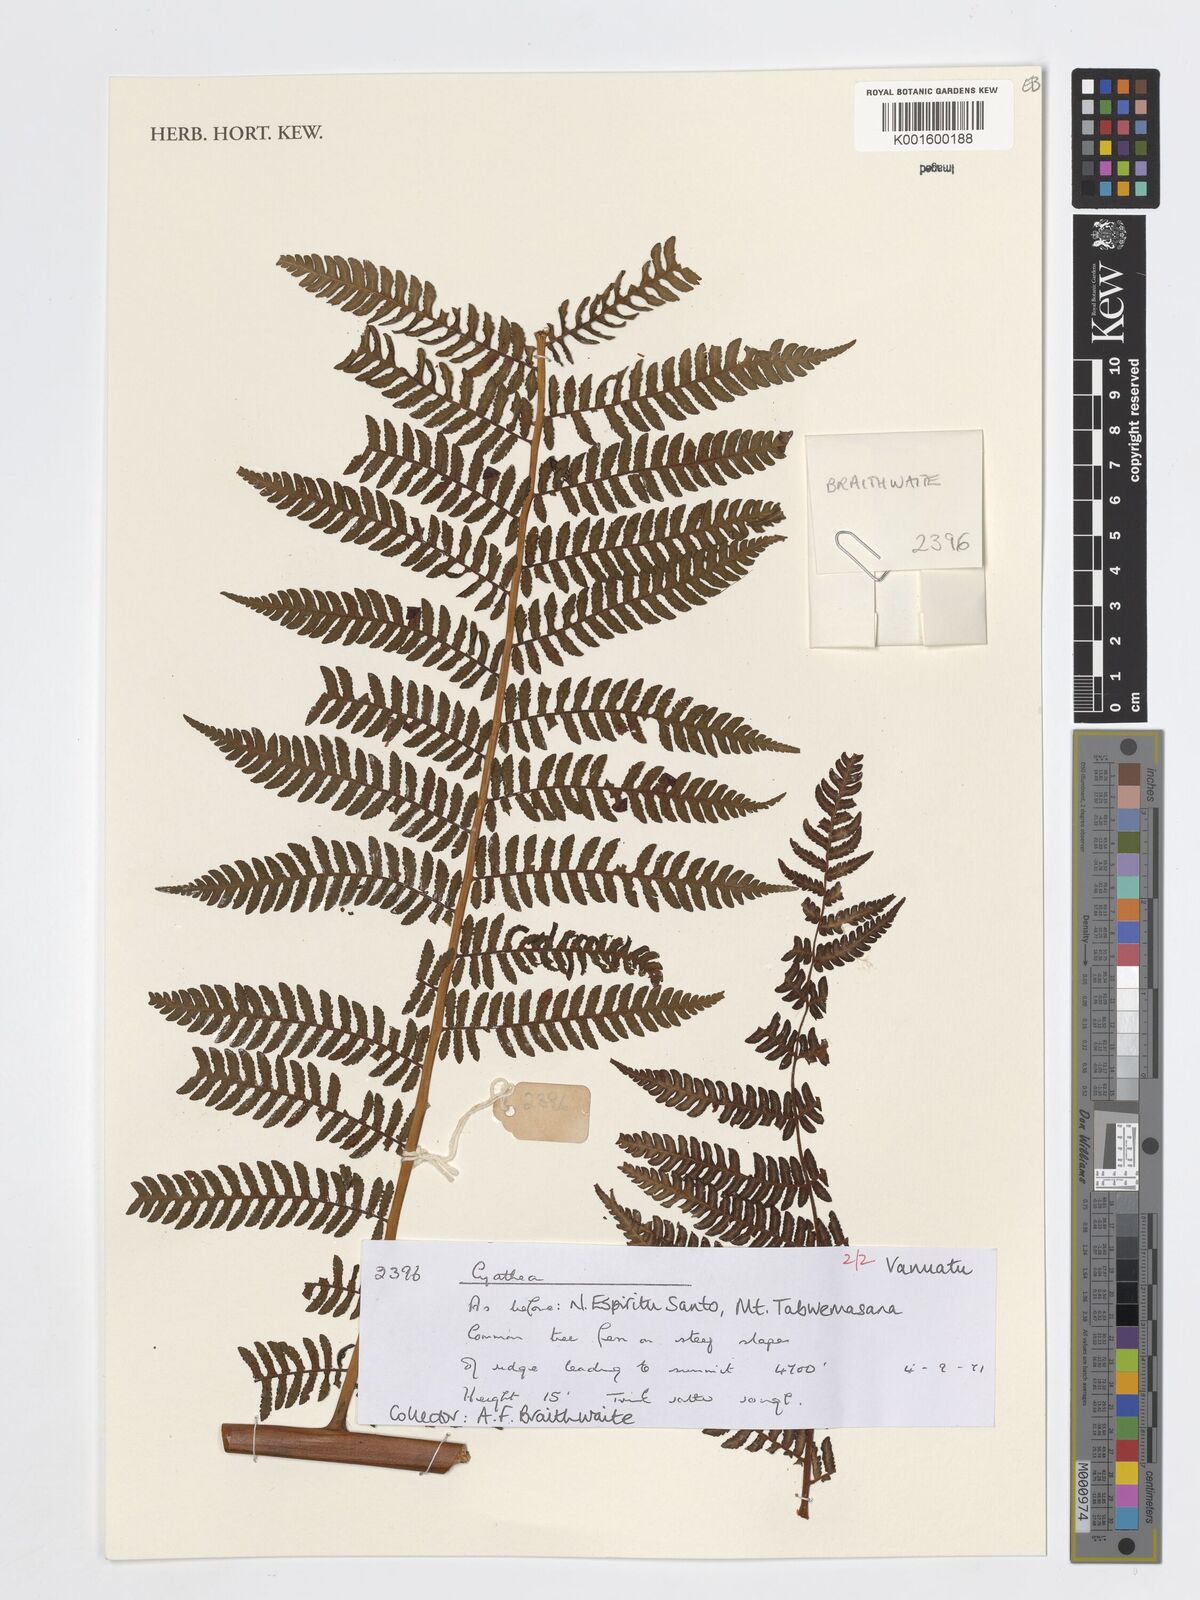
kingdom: Plantae
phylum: Tracheophyta
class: Polypodiopsida
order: Cyatheales
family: Cyatheaceae
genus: Cyathea
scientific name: Cyathea
